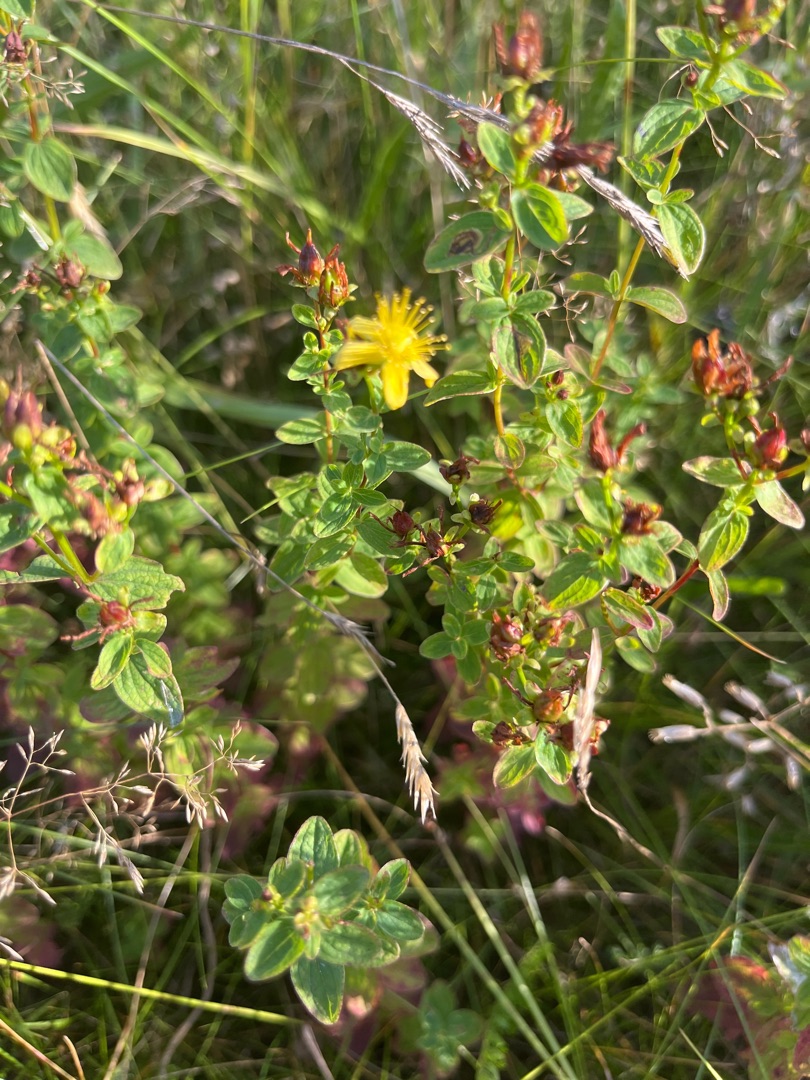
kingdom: Plantae
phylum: Tracheophyta
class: Magnoliopsida
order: Malpighiales
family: Hypericaceae
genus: Hypericum
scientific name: Hypericum maculatum
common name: Kantet perikon
